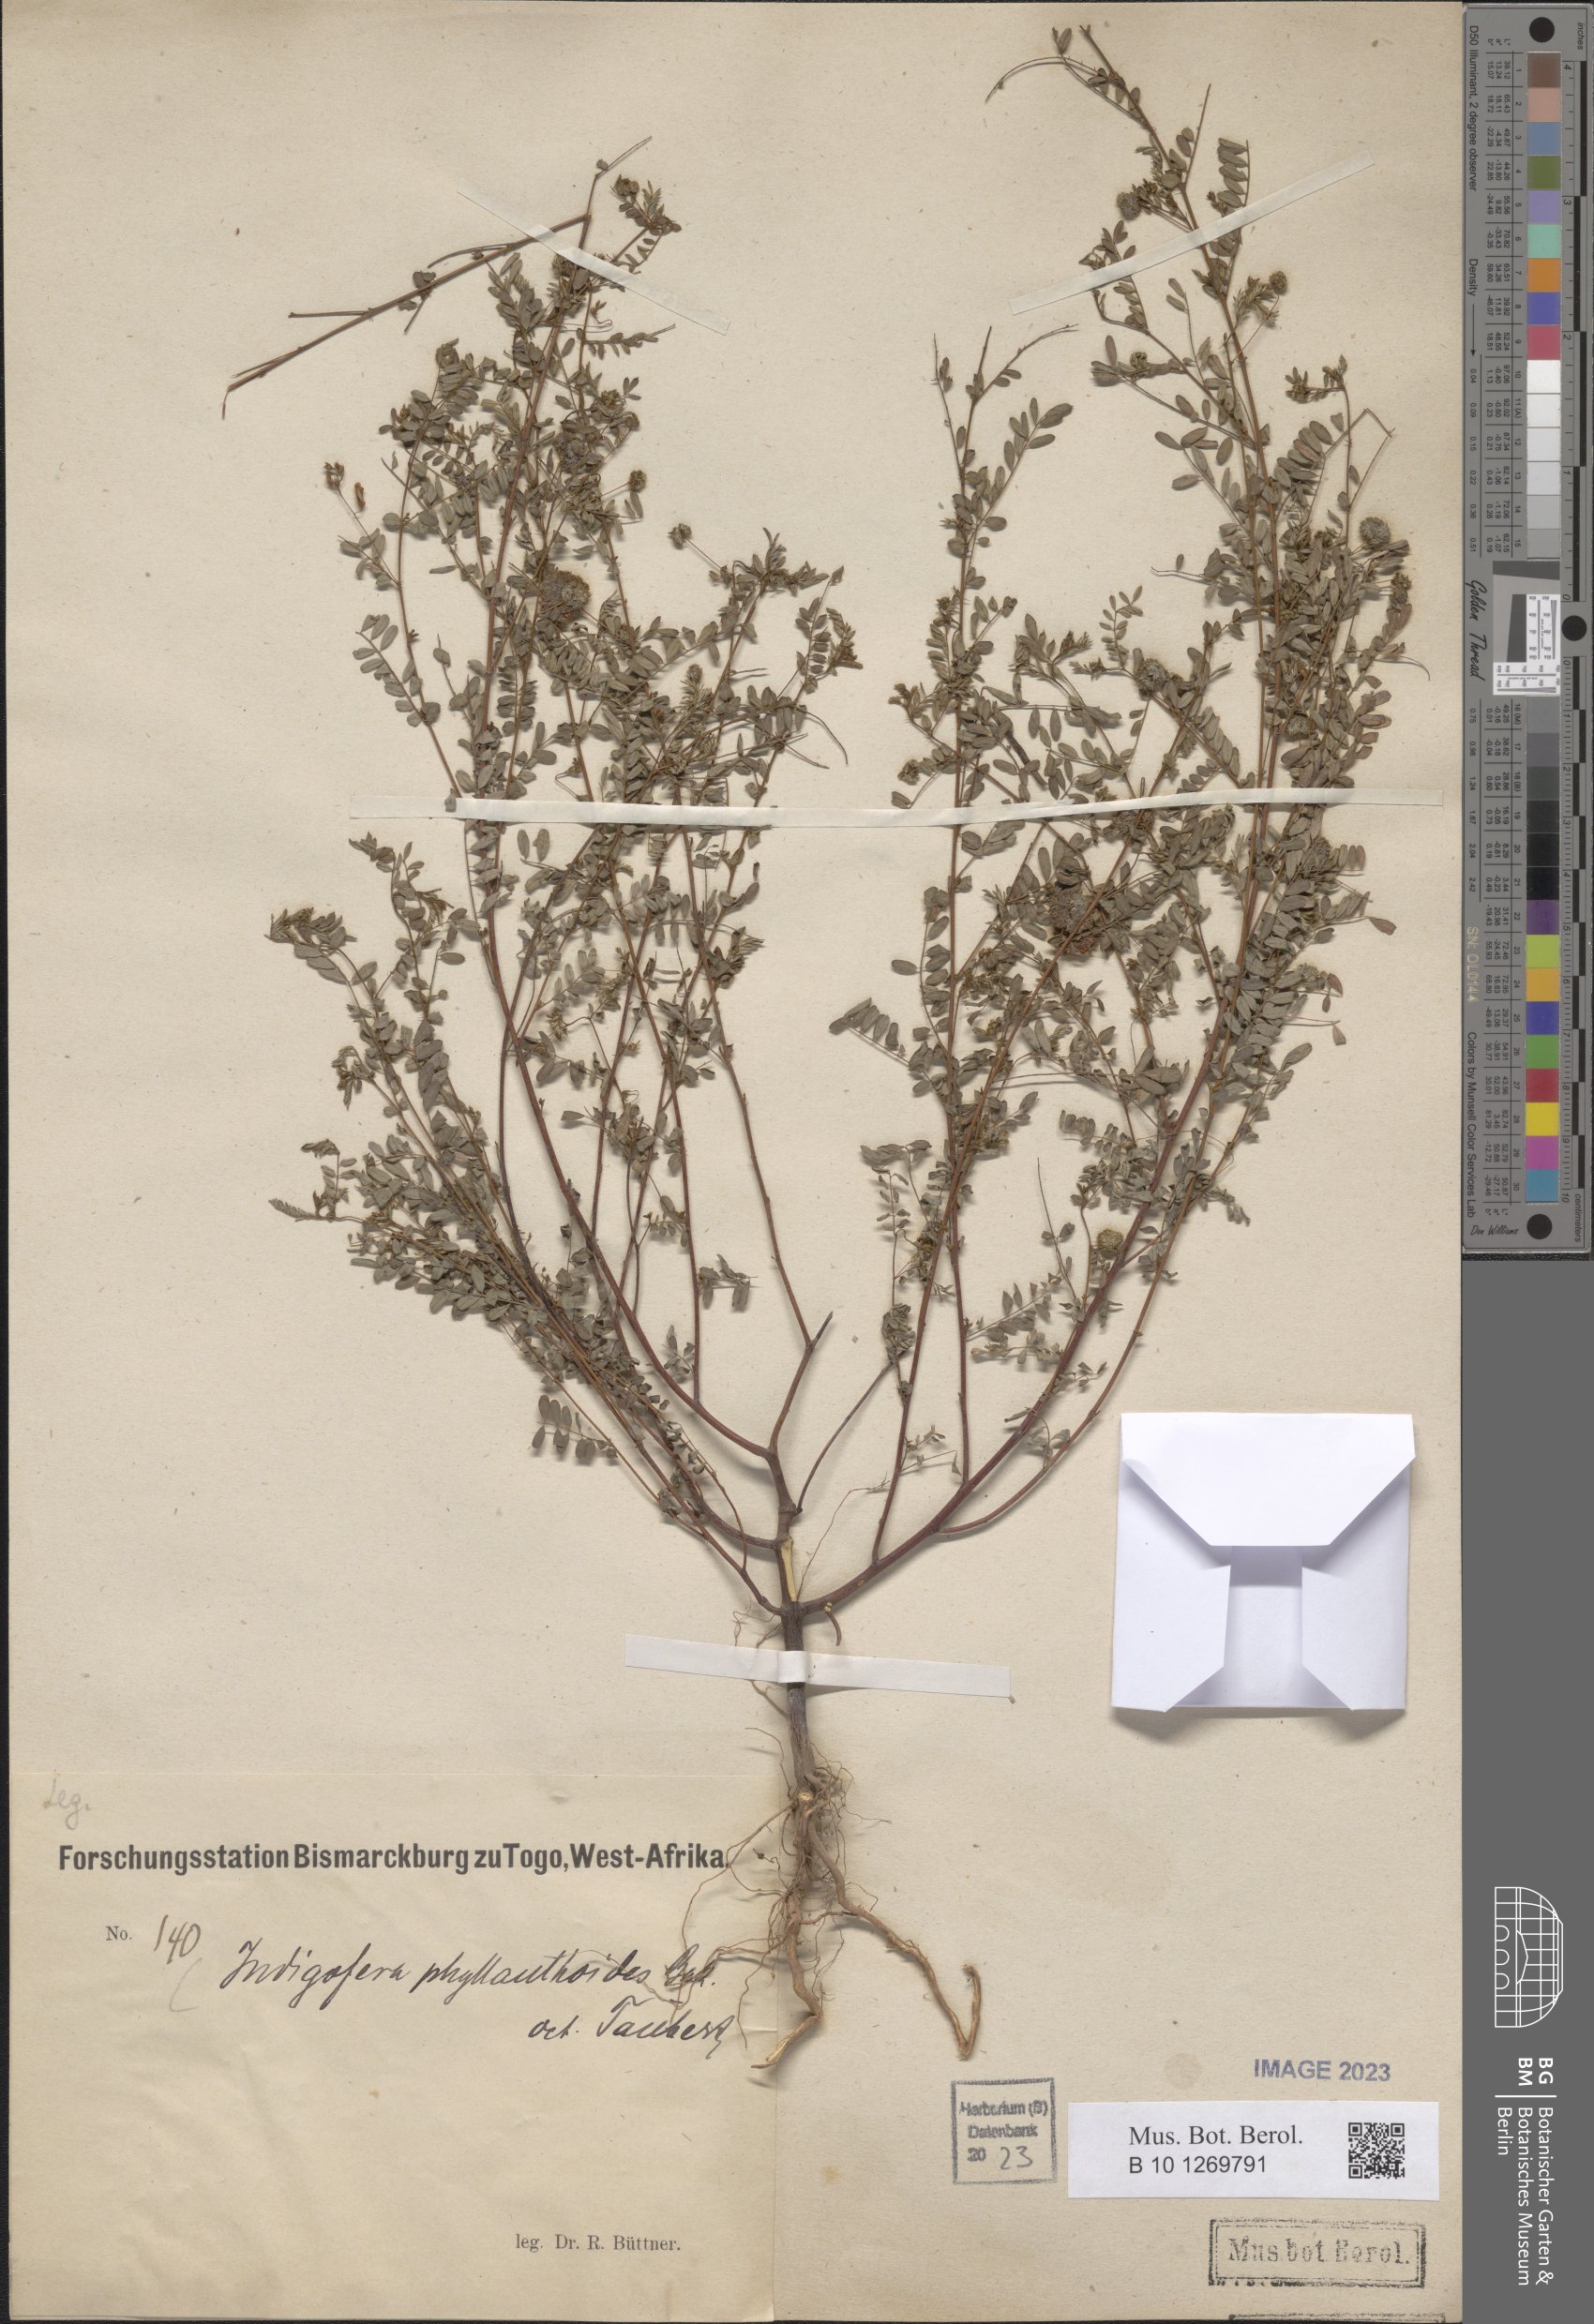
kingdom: Plantae
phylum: Tracheophyta
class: Magnoliopsida
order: Fabales
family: Fabaceae
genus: Indigofera
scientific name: Indigofera phyllanthoides
